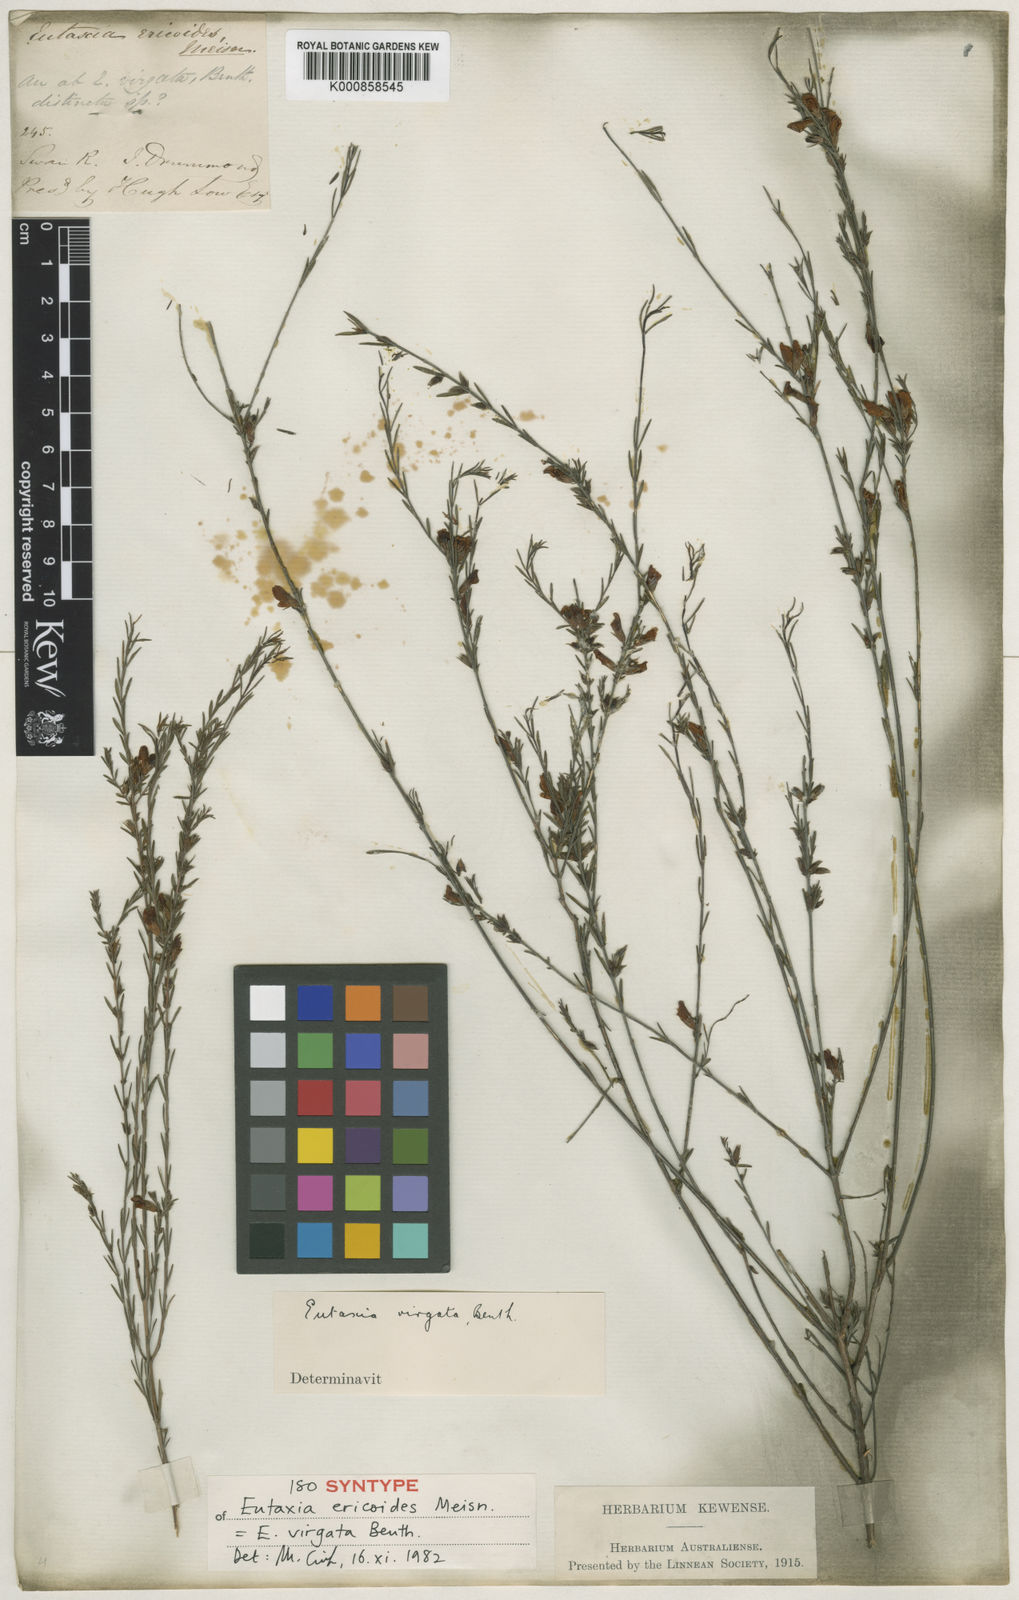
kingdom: Plantae
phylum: Tracheophyta
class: Magnoliopsida
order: Fabales
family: Fabaceae
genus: Eutaxia
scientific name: Eutaxia virgata
